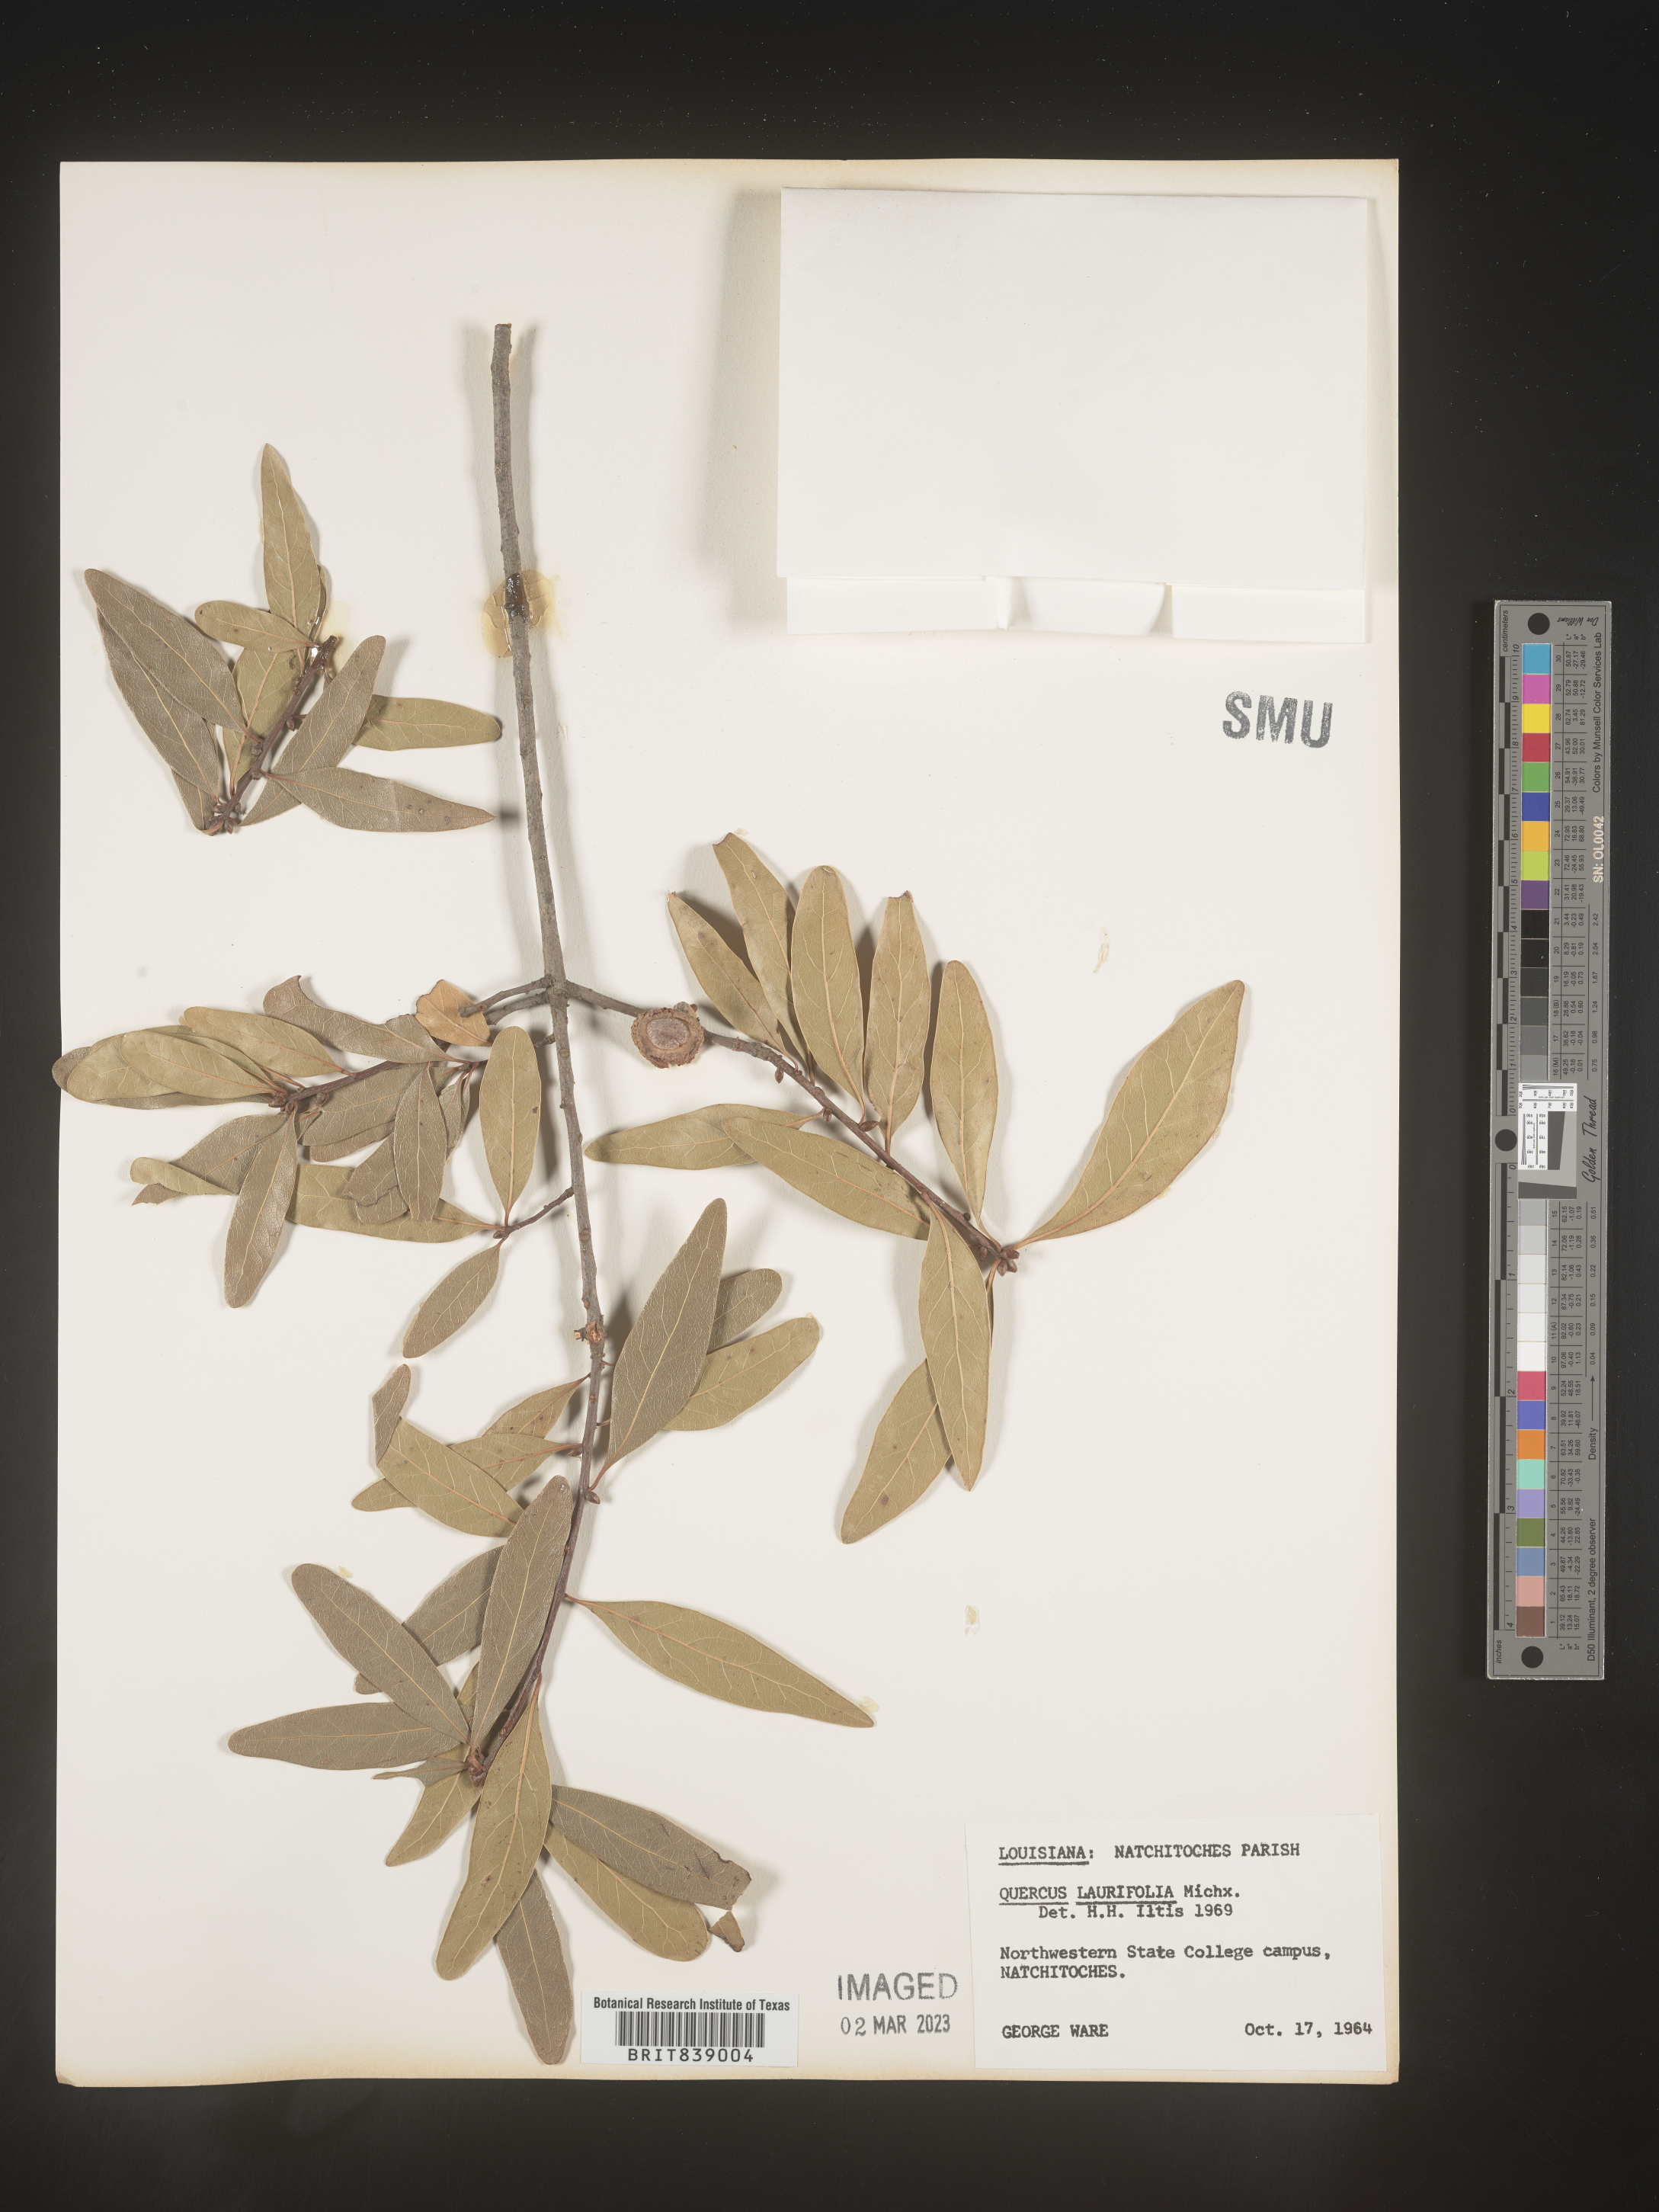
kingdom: Plantae
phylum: Tracheophyta
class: Magnoliopsida
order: Fagales
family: Fagaceae
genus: Quercus
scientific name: Quercus laurifolia
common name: Swamp laurel oak
